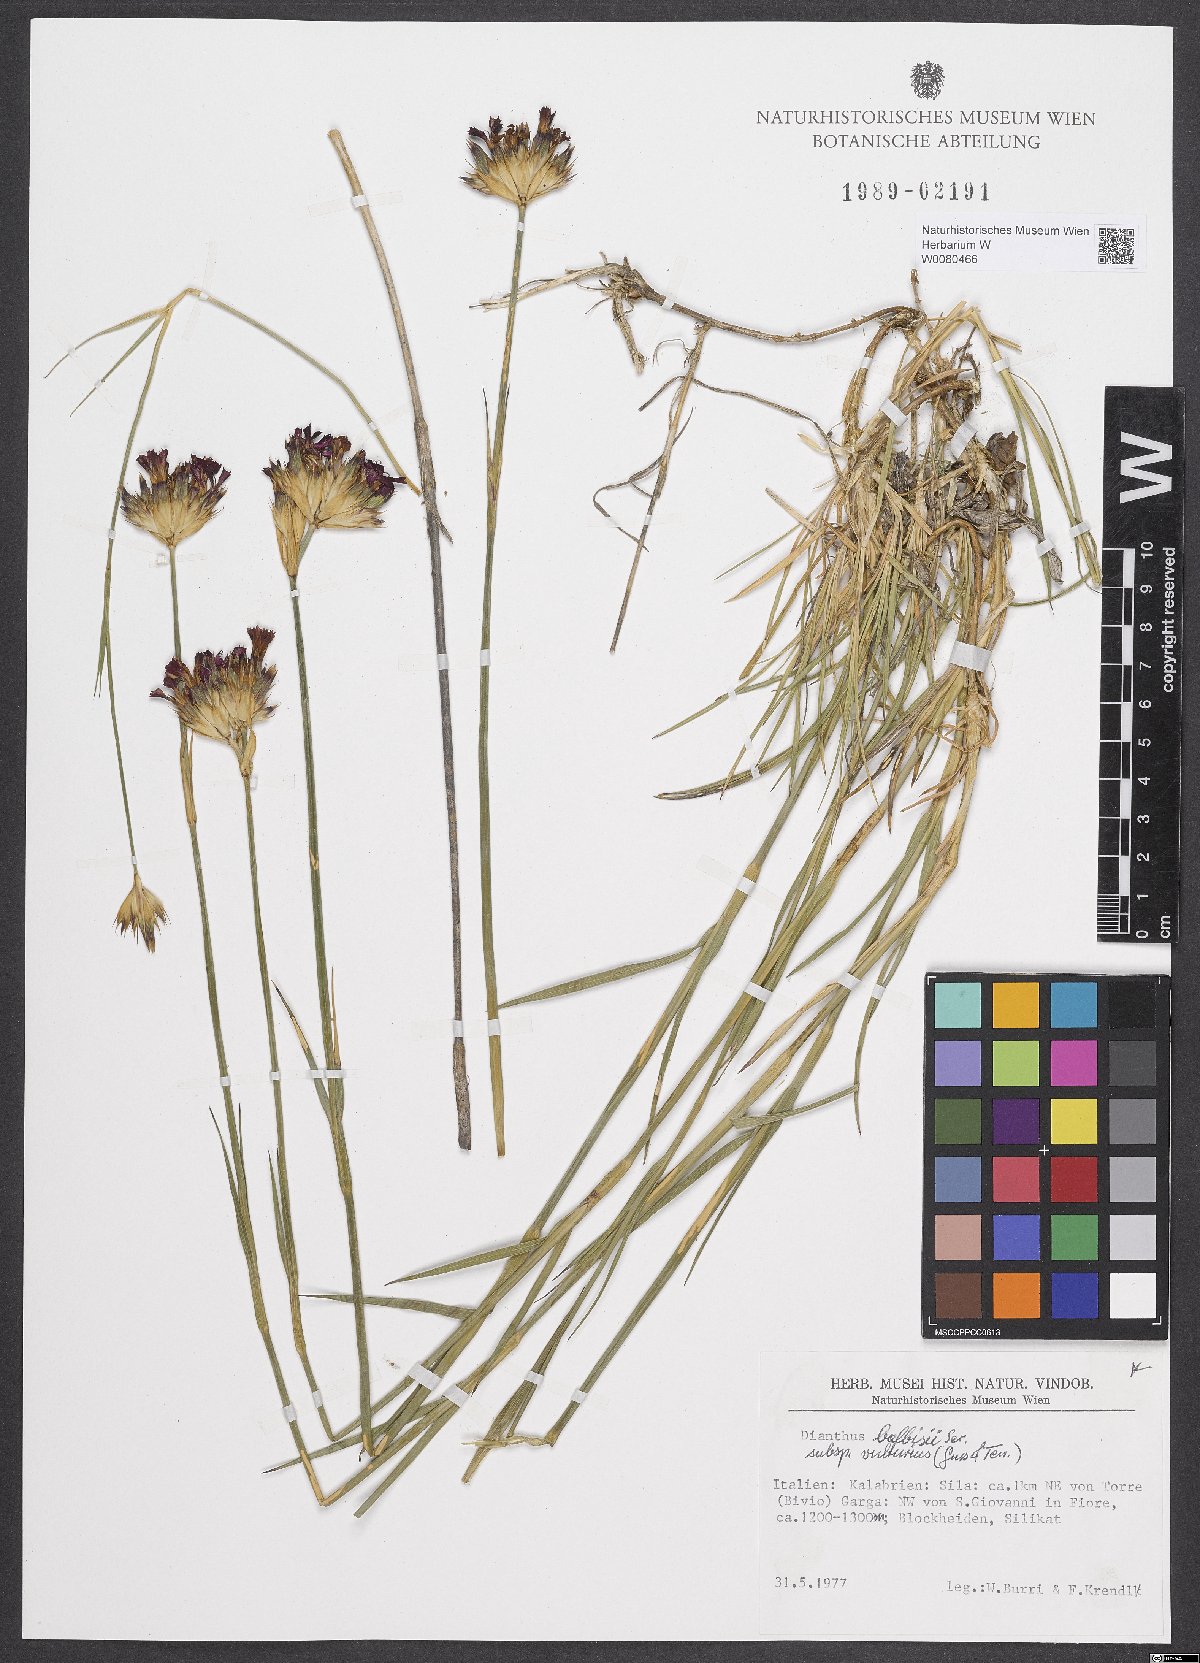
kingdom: Plantae
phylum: Tracheophyta
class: Magnoliopsida
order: Caryophyllales
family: Caryophyllaceae
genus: Dianthus
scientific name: Dianthus balbisii
